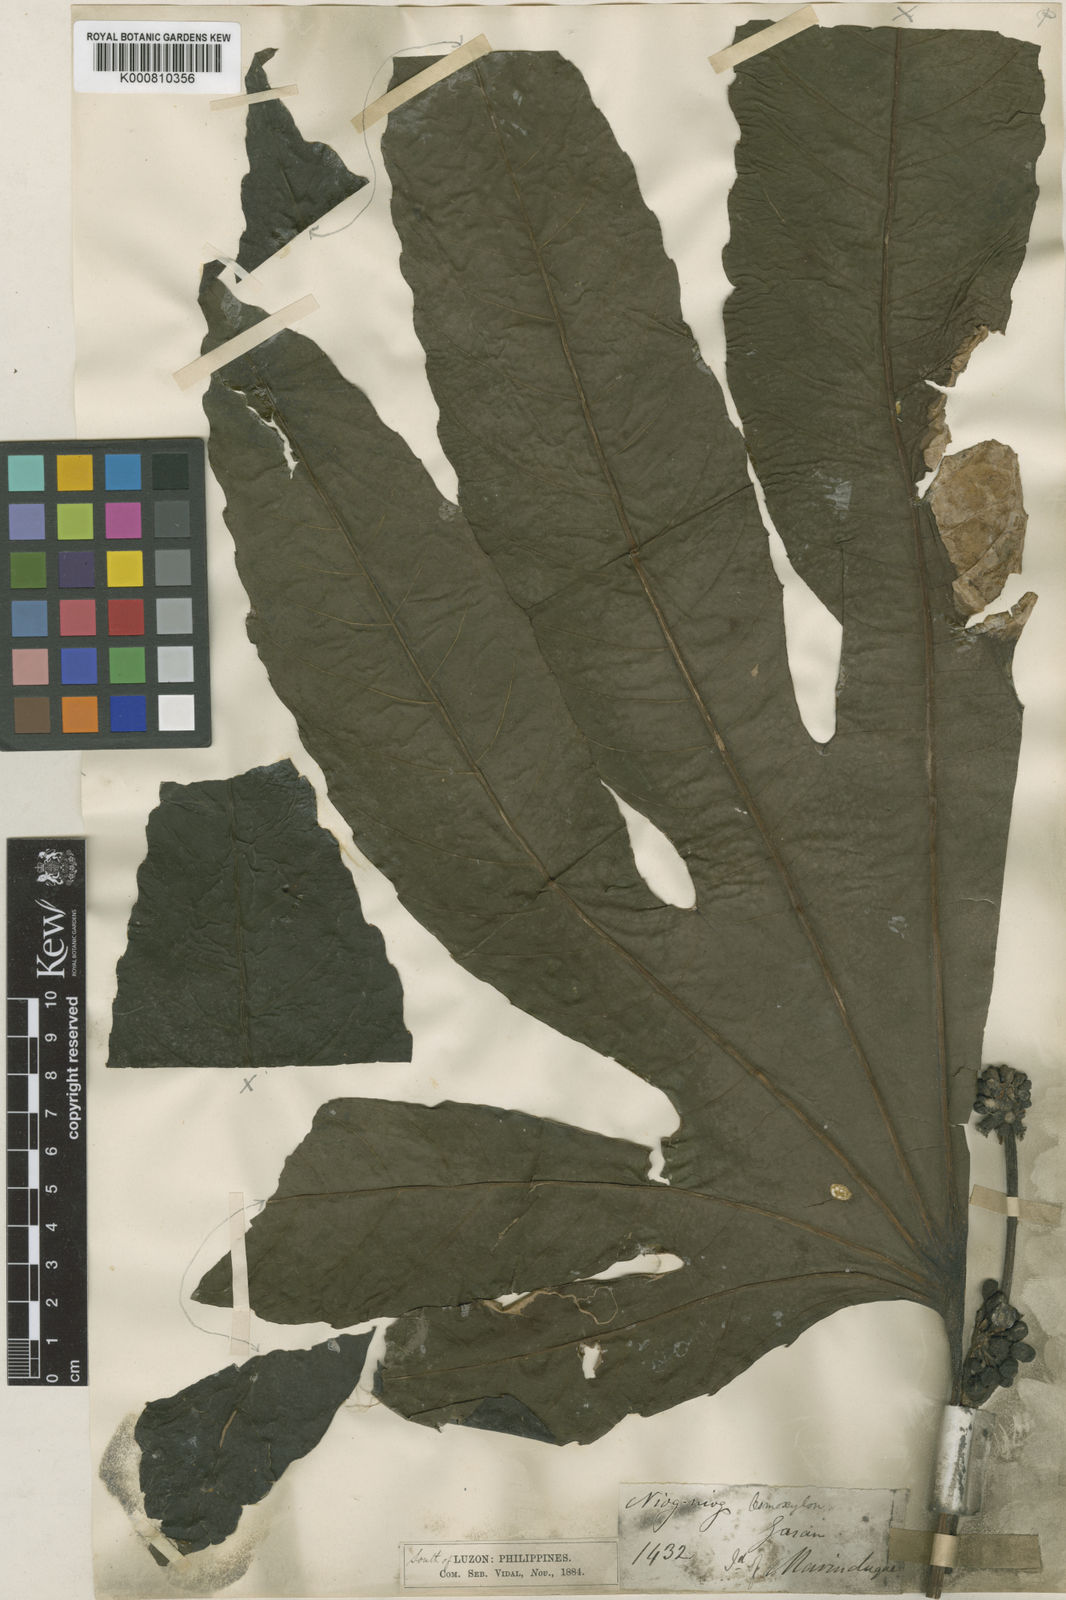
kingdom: Plantae
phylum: Tracheophyta
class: Magnoliopsida
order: Apiales
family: Araliaceae
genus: Osmoxylon
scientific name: Osmoxylon pulcherrimum
